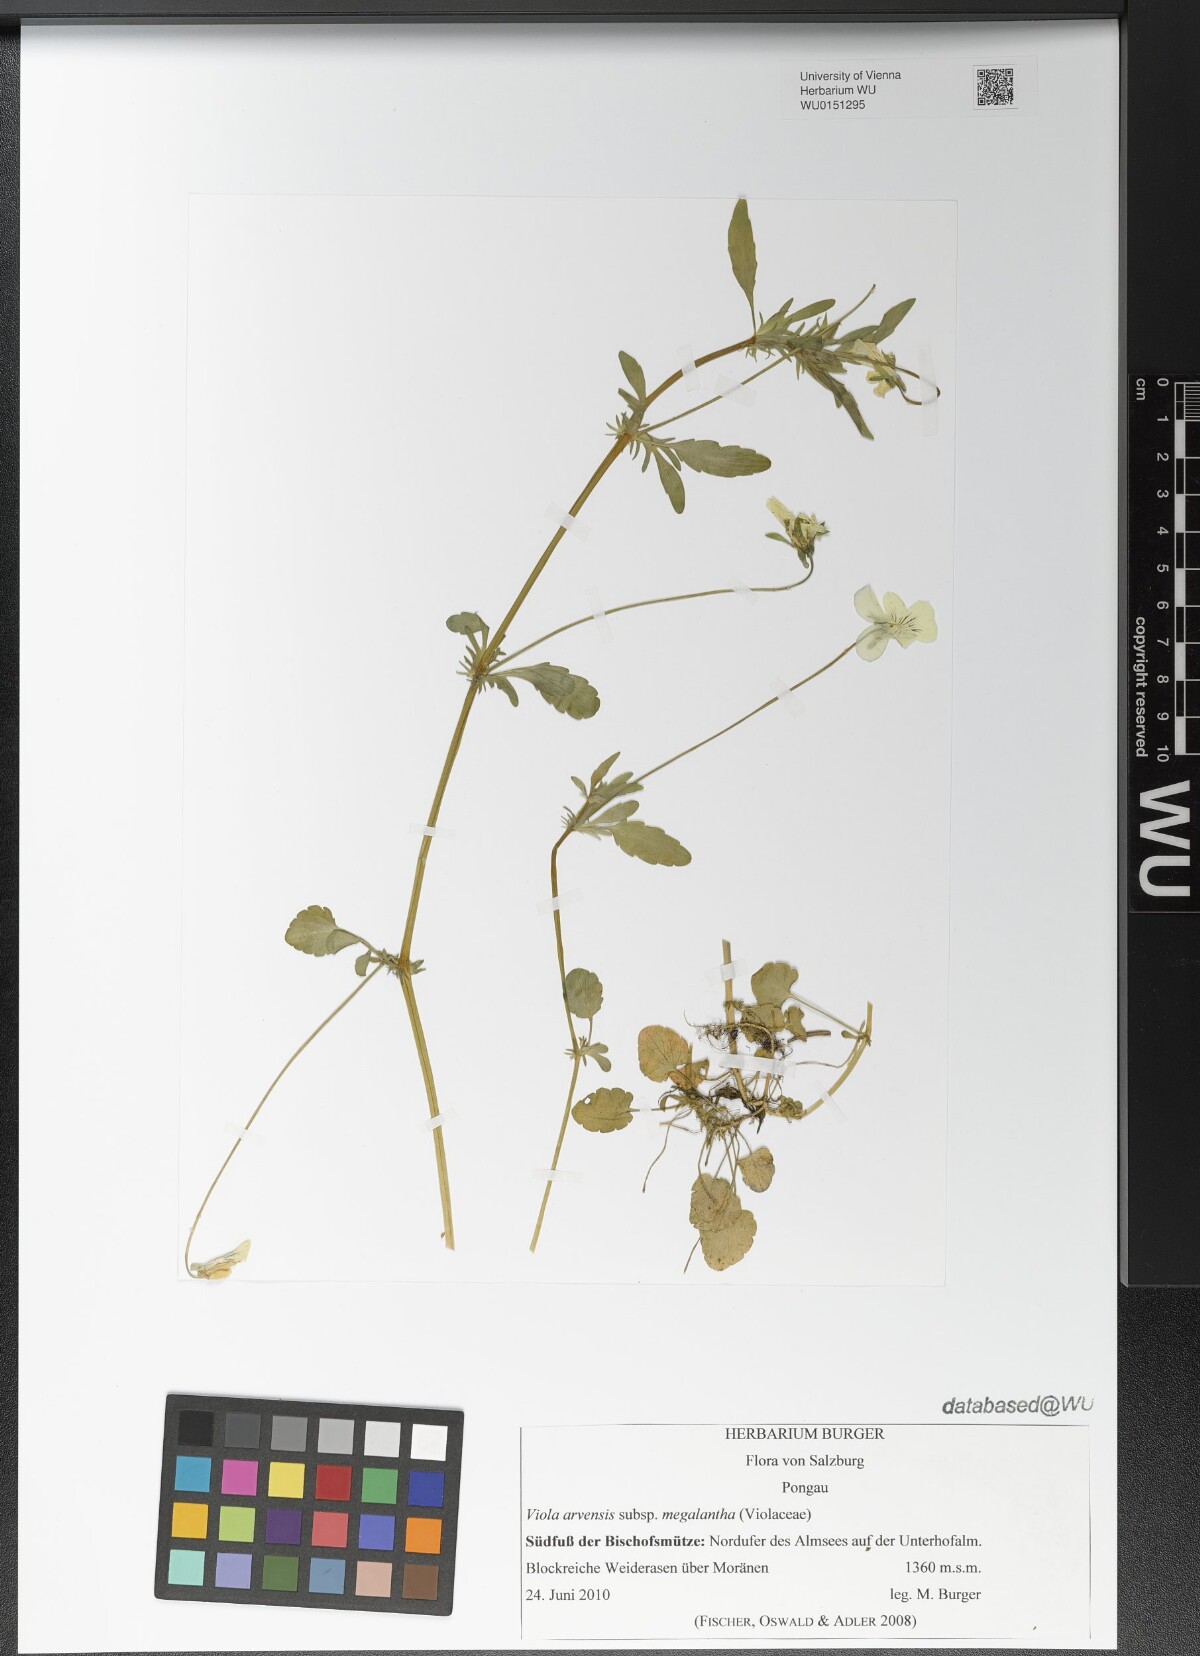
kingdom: Plantae
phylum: Tracheophyta
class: Magnoliopsida
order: Malpighiales
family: Violaceae
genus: Viola
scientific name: Viola arvensis
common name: Field pansy
